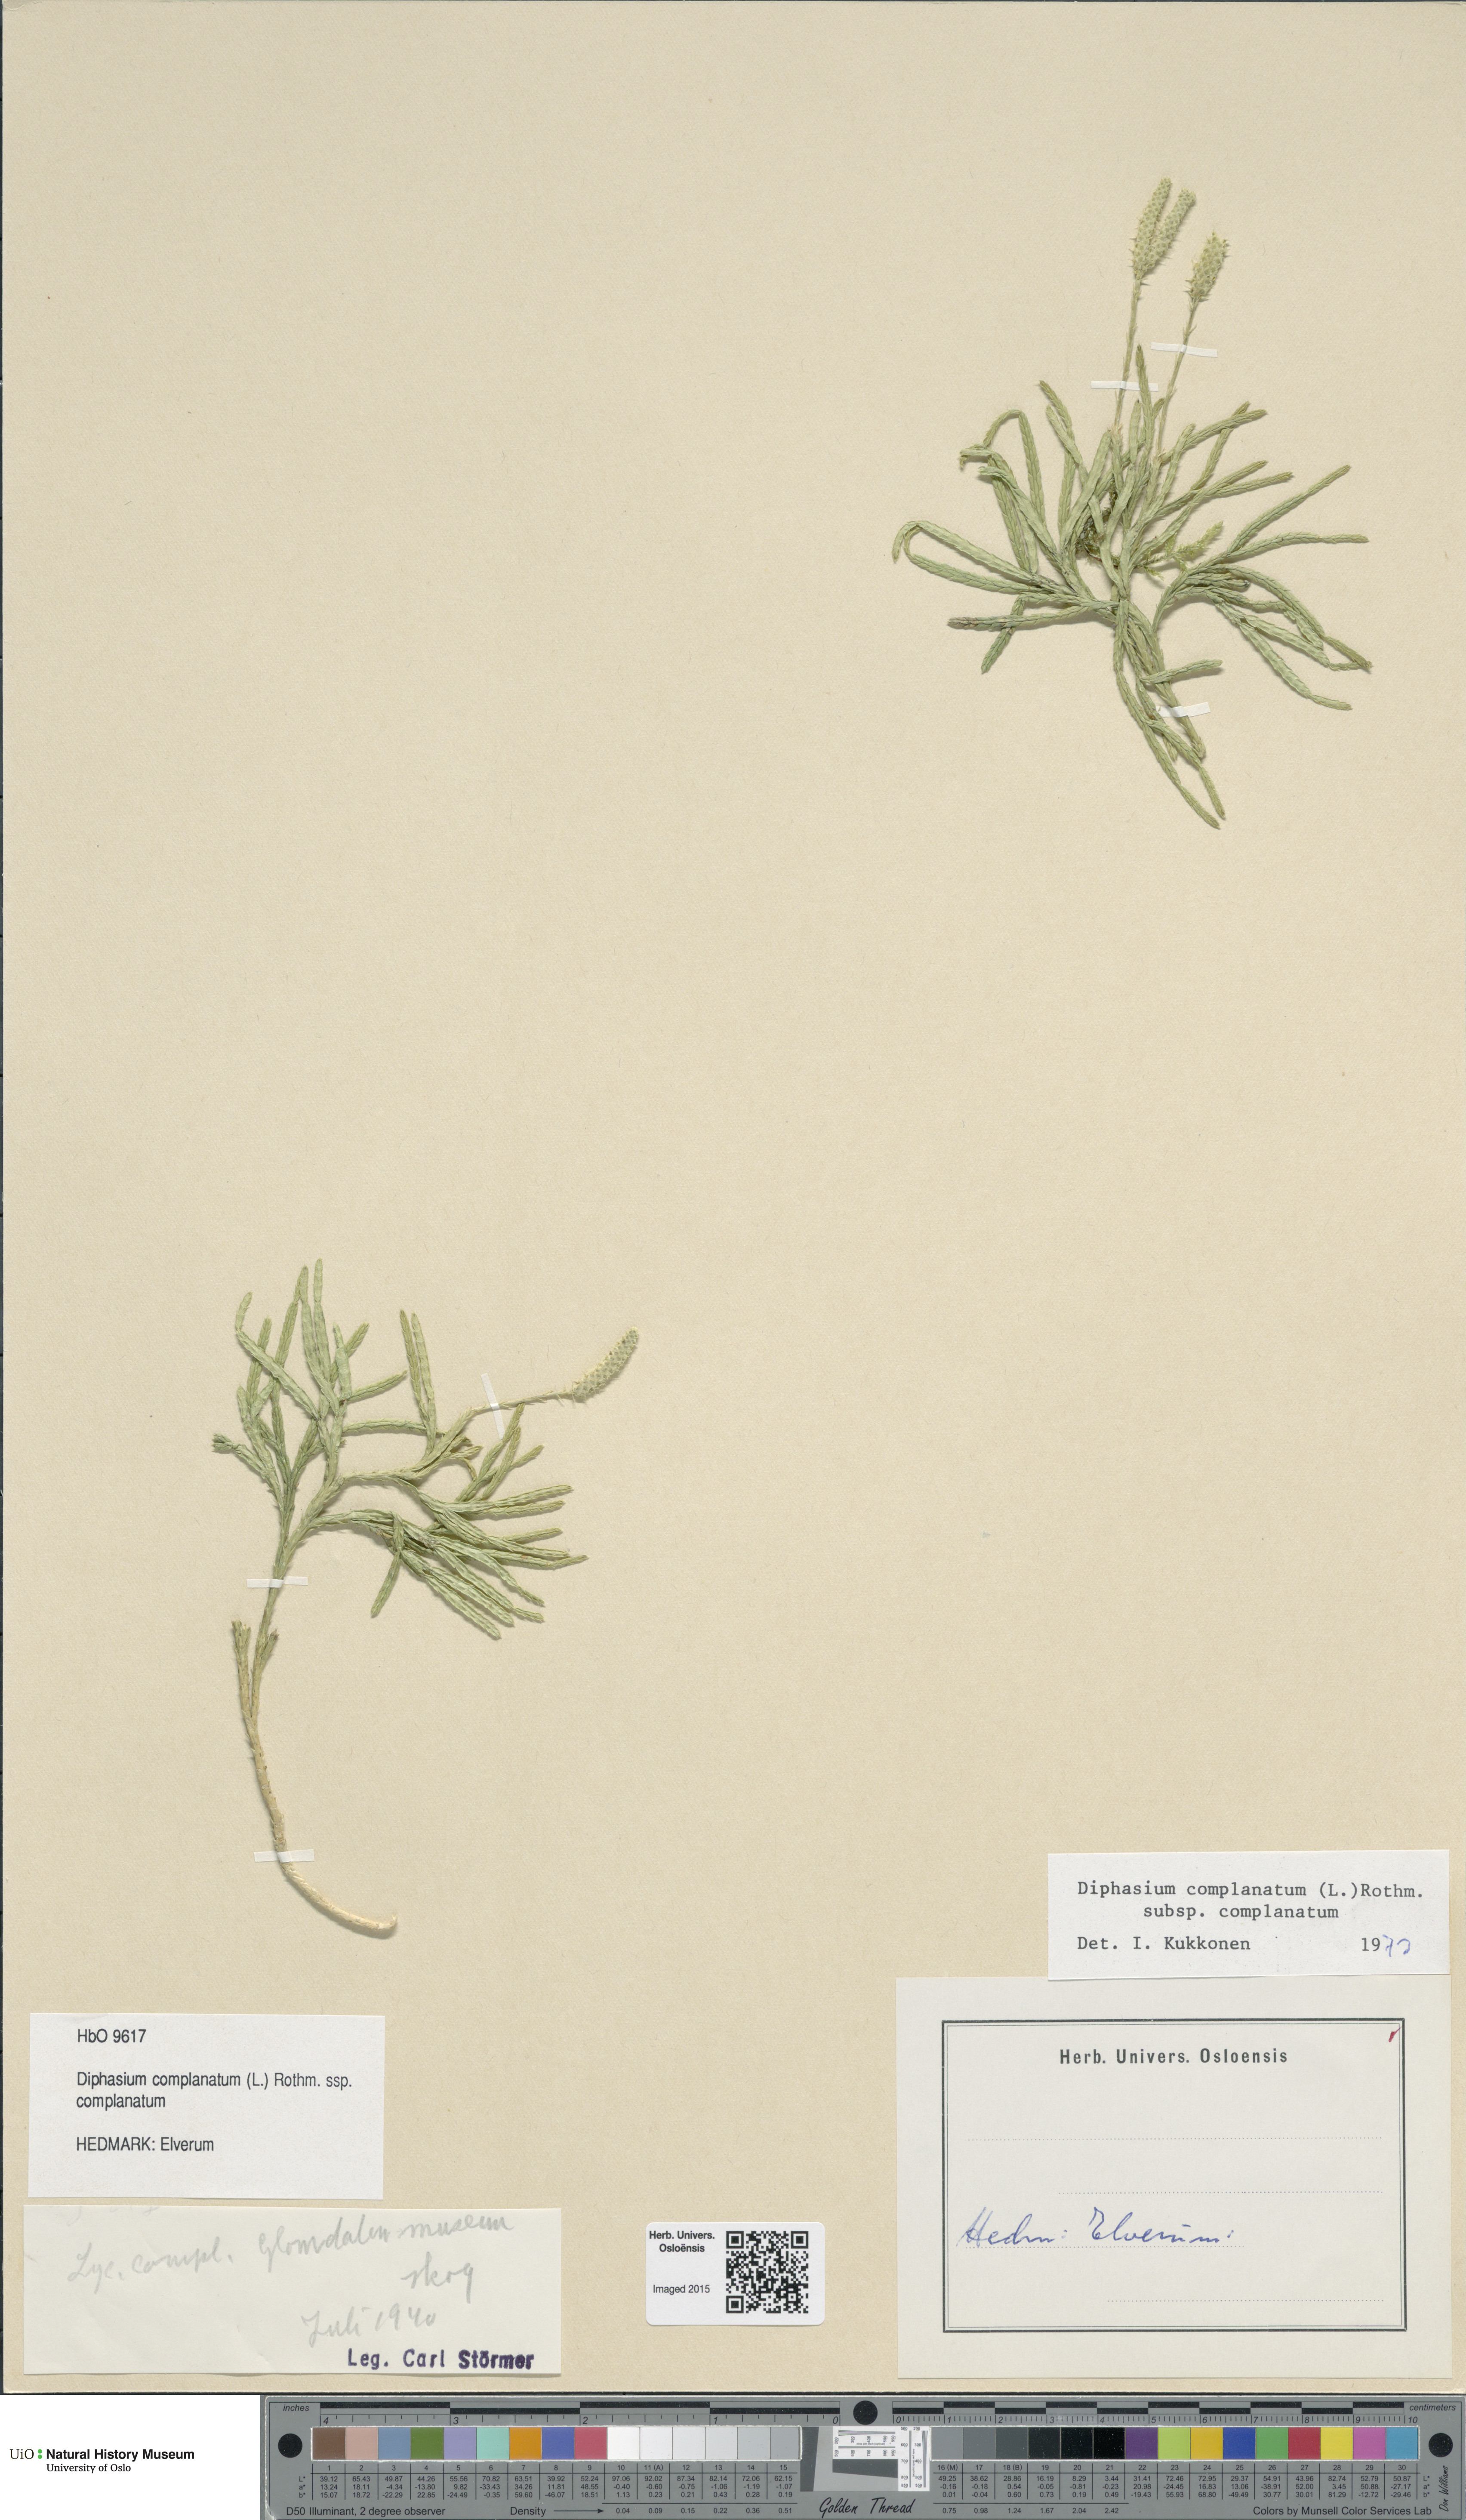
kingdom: Plantae
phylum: Tracheophyta
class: Lycopodiopsida
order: Lycopodiales
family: Lycopodiaceae
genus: Diphasiastrum
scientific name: Diphasiastrum complanatum
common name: Northern running-pine
